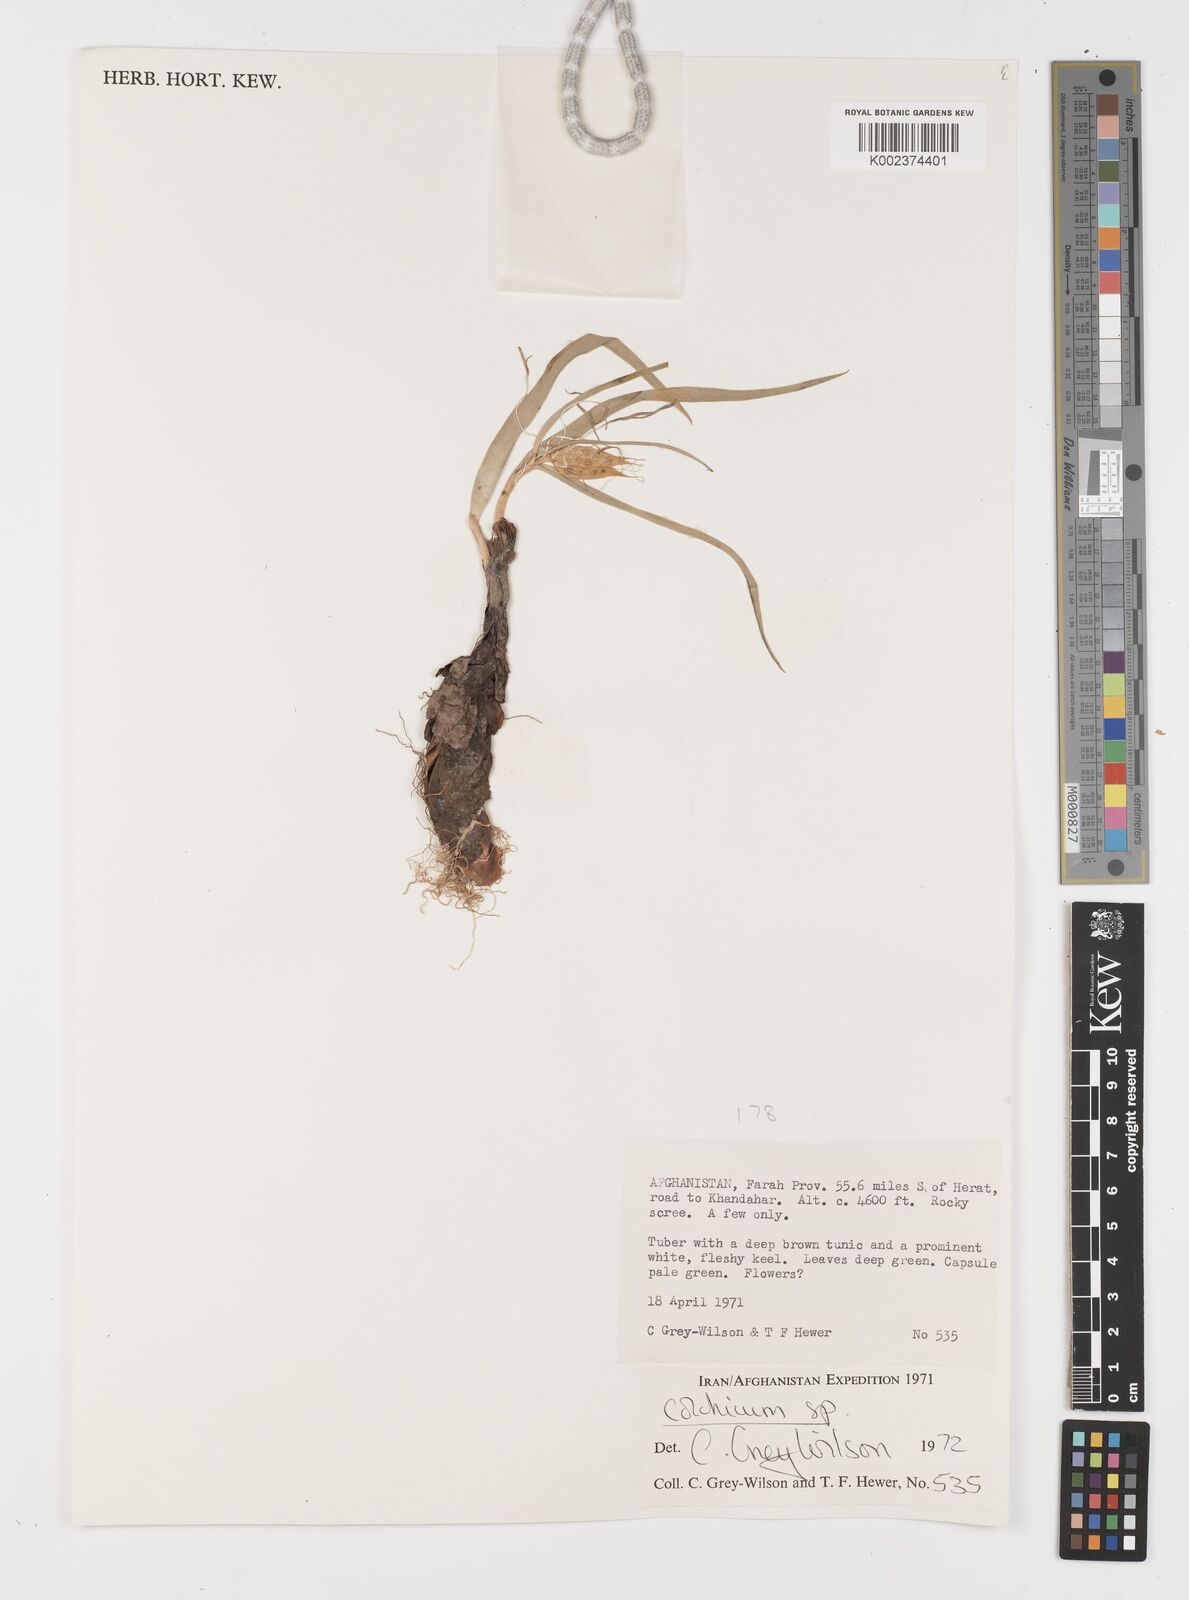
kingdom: Plantae
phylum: Tracheophyta
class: Liliopsida
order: Liliales
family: Colchicaceae
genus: Colchicum
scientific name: Colchicum
